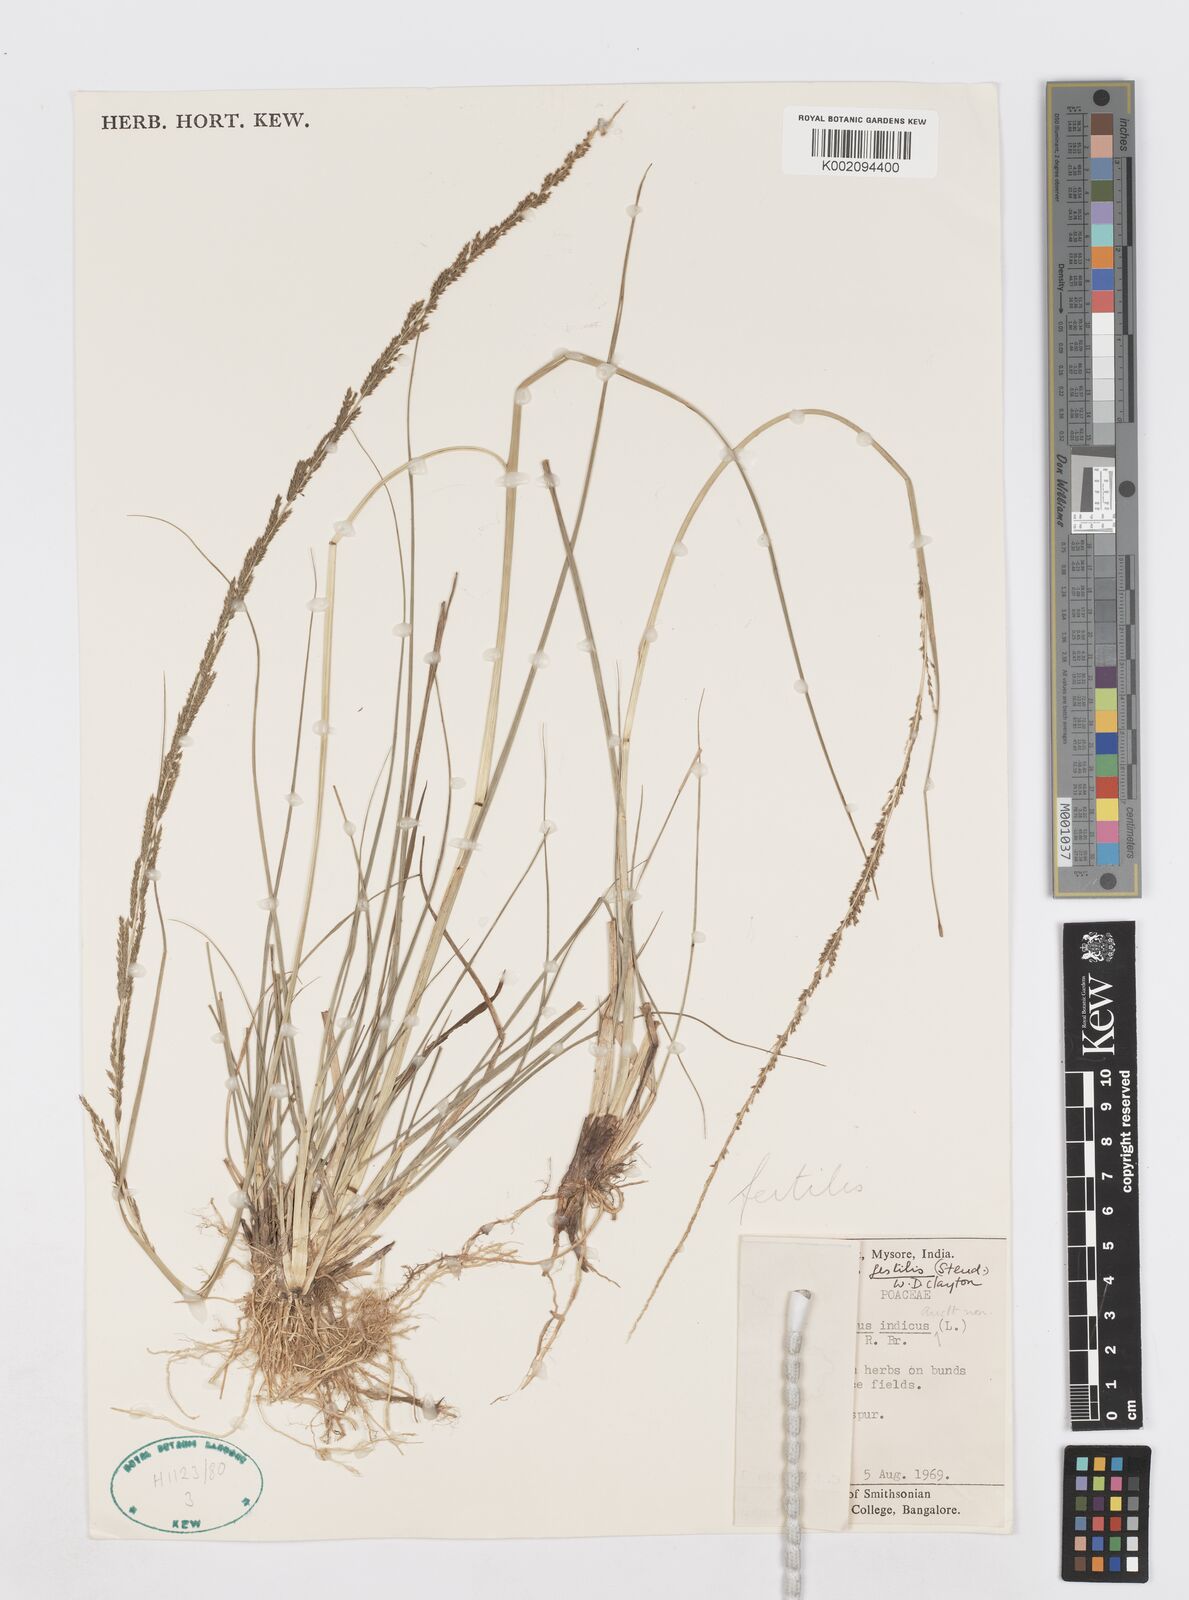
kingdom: Plantae
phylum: Tracheophyta
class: Liliopsida
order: Poales
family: Poaceae
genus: Sporobolus
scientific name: Sporobolus fertilis
